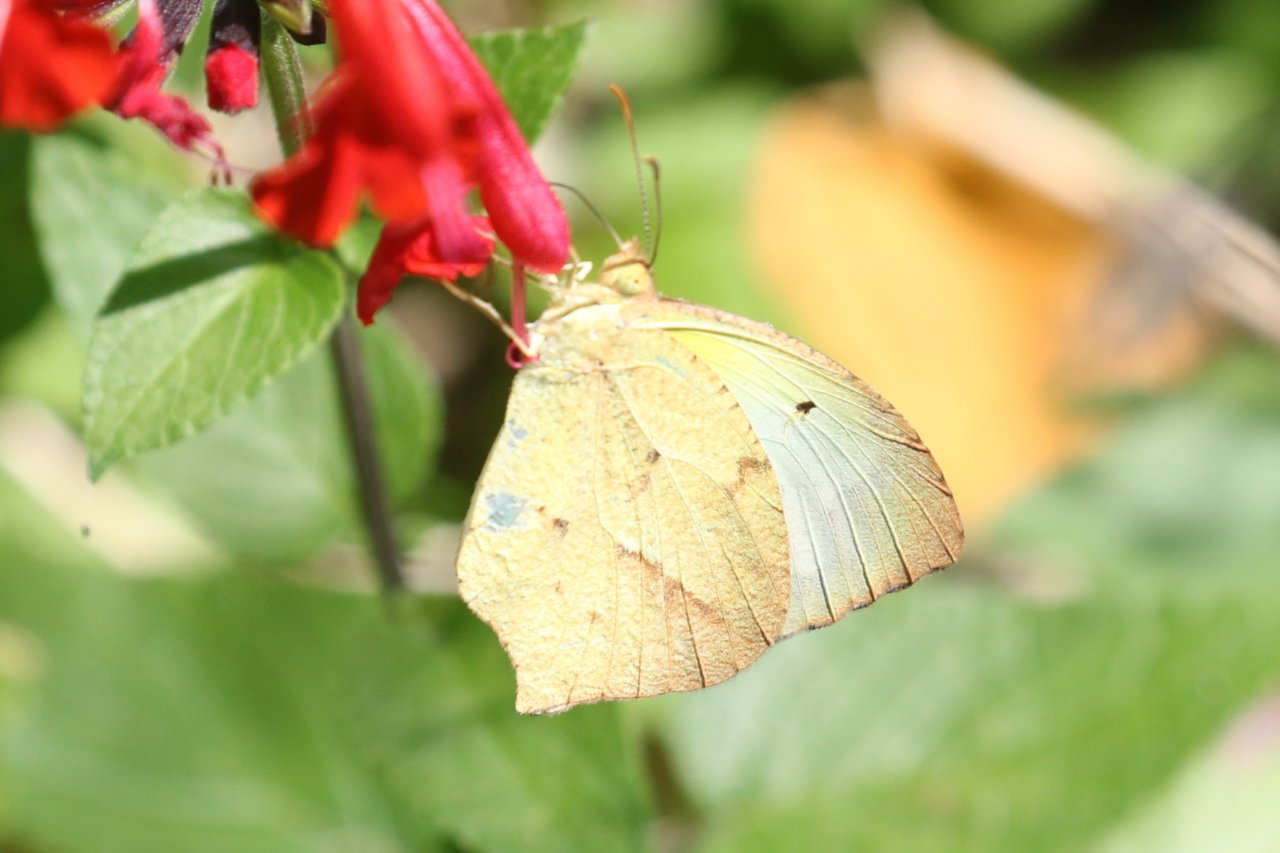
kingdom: Animalia
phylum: Arthropoda
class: Insecta
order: Lepidoptera
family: Pieridae
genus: Eurema
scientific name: Eurema mexicana
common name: Mexican Yellow
